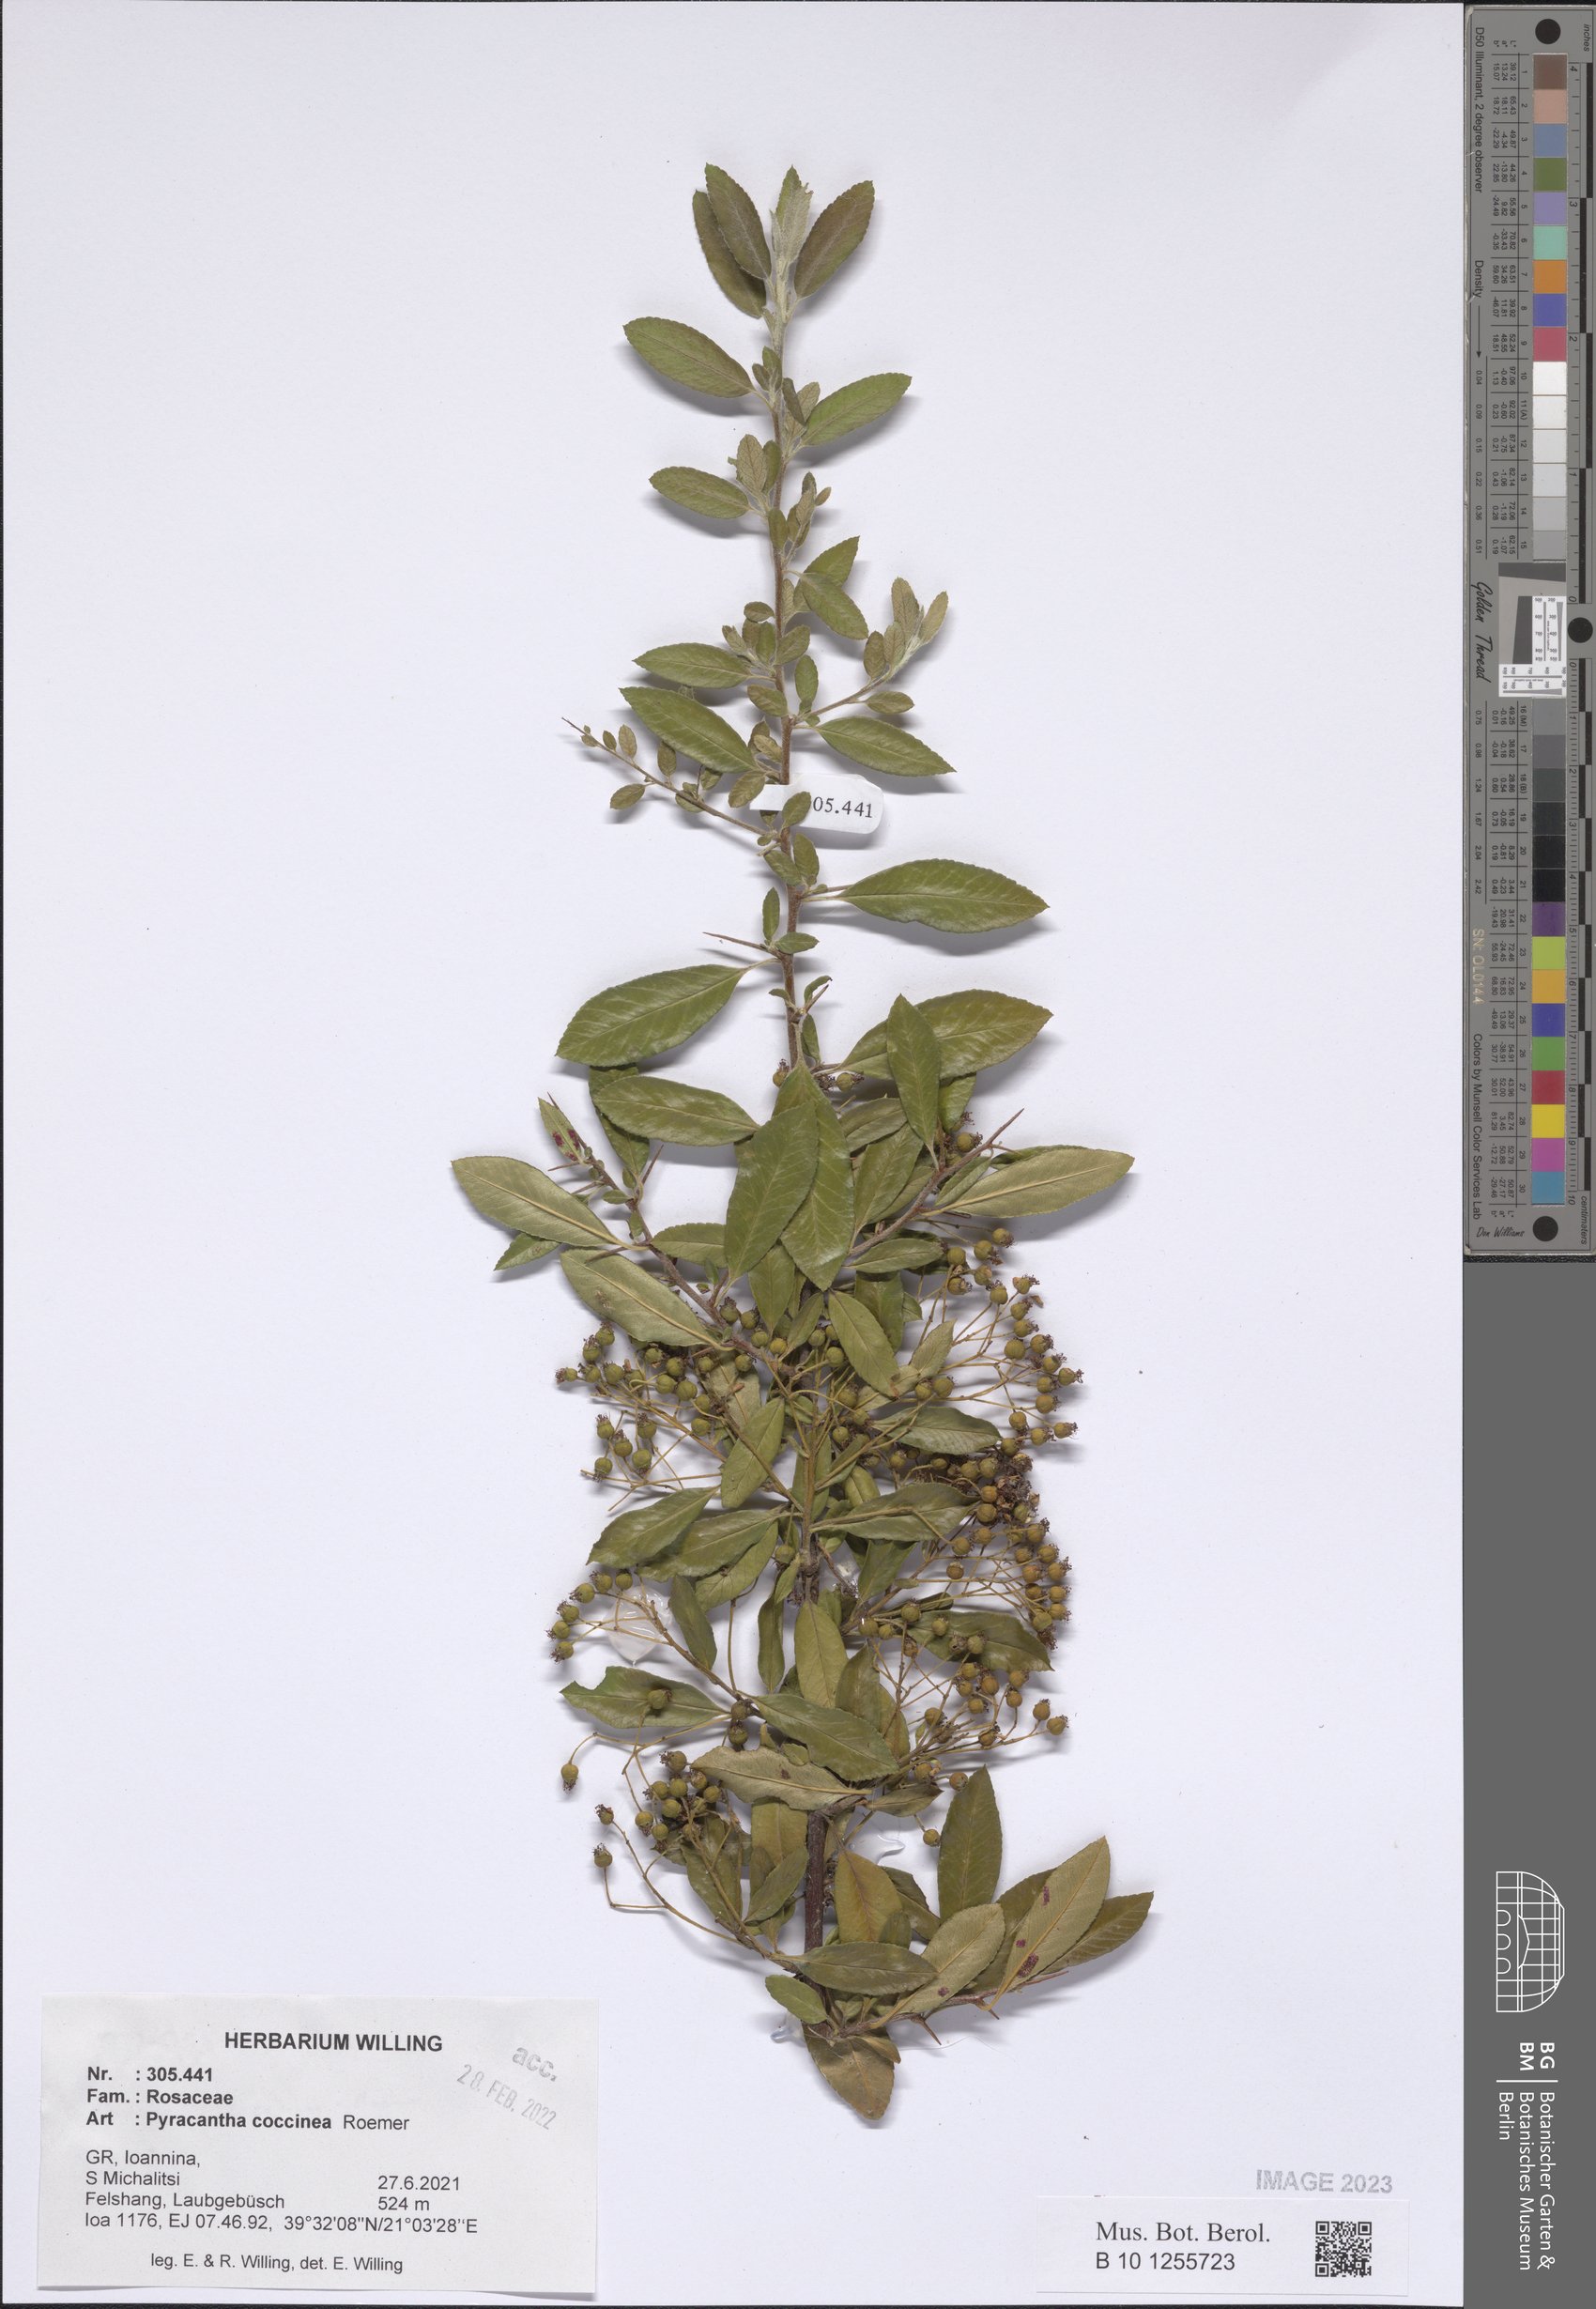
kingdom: Plantae
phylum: Tracheophyta
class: Magnoliopsida
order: Rosales
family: Rosaceae
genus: Pyracantha
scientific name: Pyracantha coccinea
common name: Firethorn
